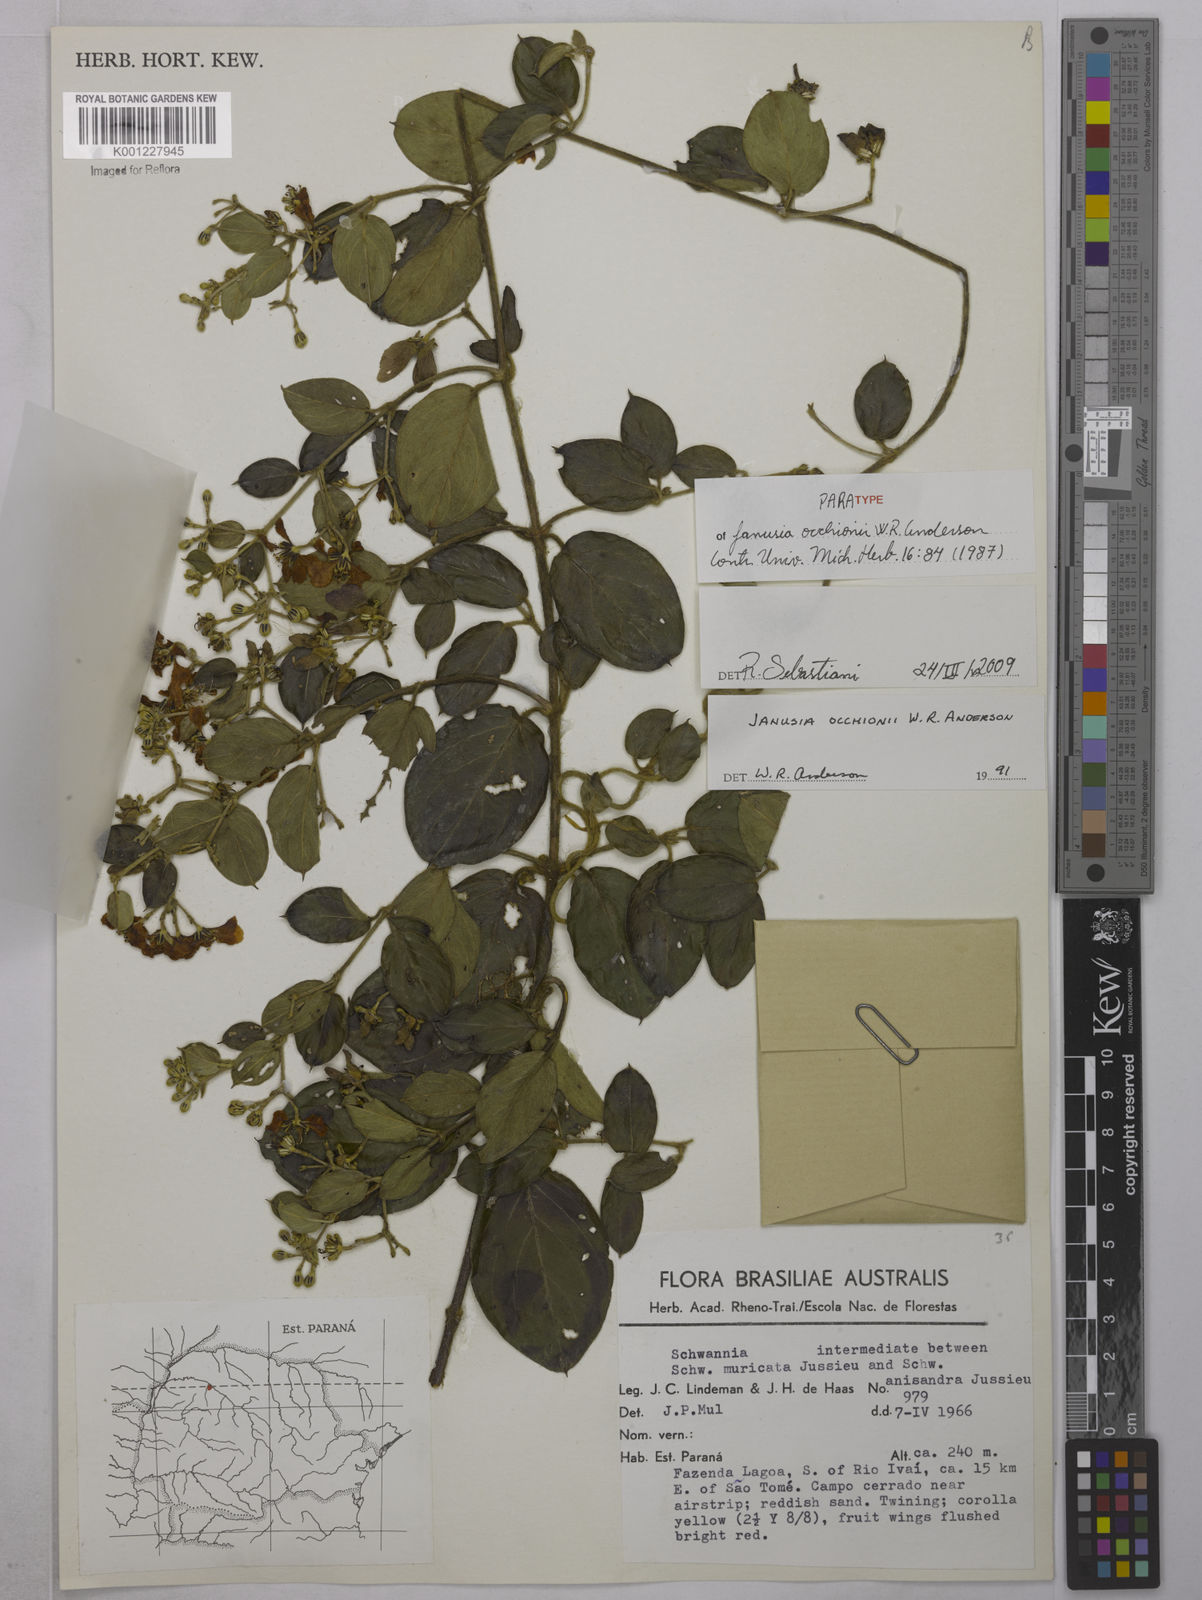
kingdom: Plantae
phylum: Tracheophyta
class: Magnoliopsida
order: Malpighiales
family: Malpighiaceae
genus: Janusia
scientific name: Janusia occhionii
